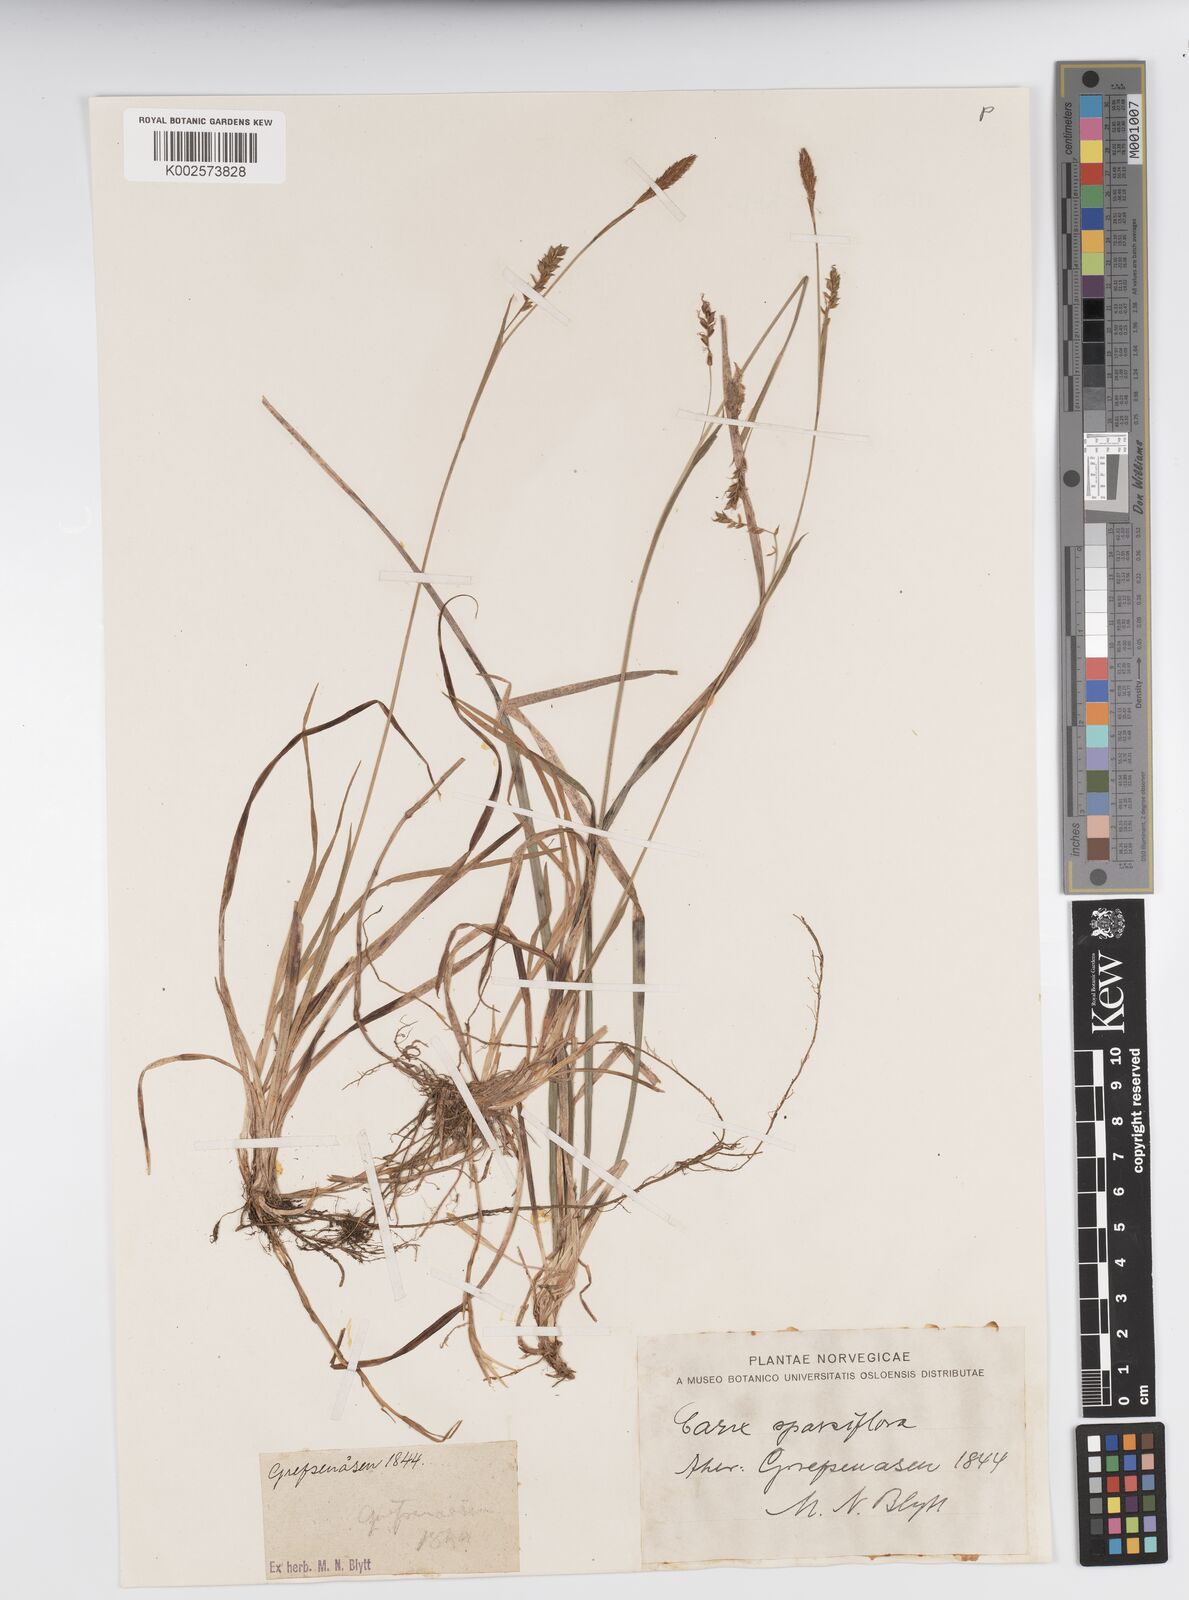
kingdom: Plantae
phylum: Tracheophyta
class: Liliopsida
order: Poales
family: Cyperaceae
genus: Carex
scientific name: Carex vaginata
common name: Sheathed sedge
